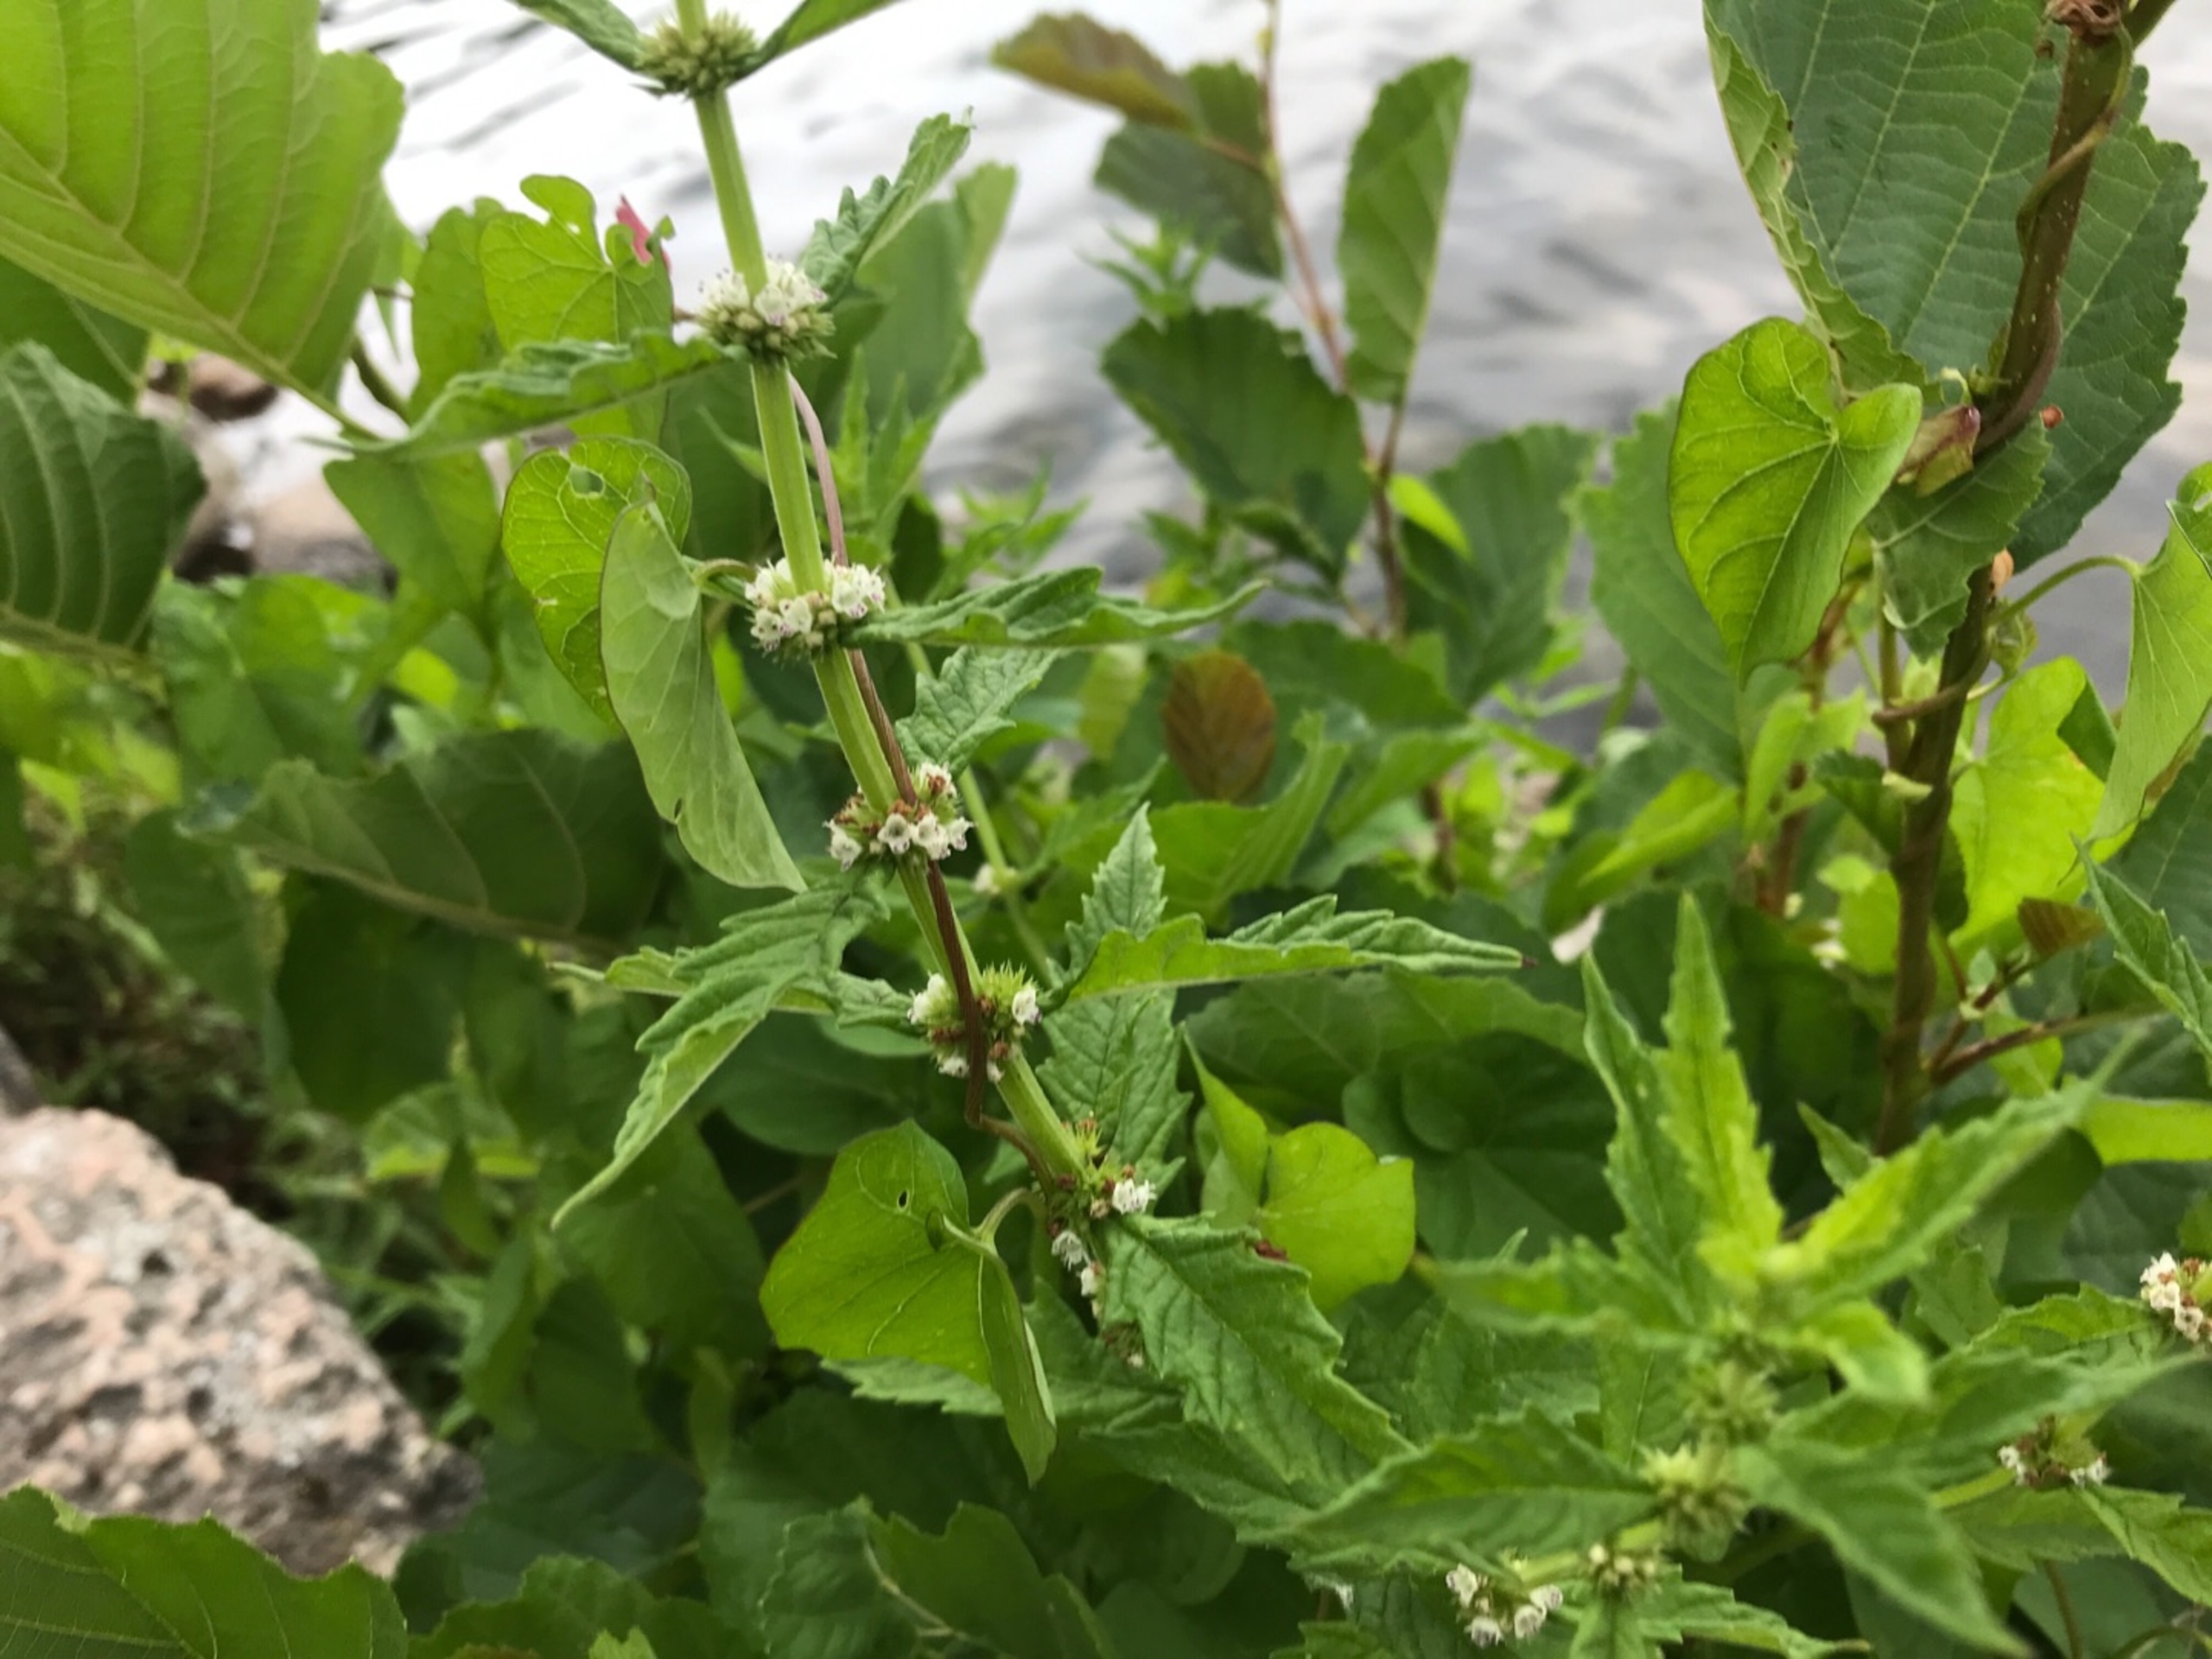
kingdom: Plantae
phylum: Tracheophyta
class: Magnoliopsida
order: Lamiales
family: Lamiaceae
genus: Lycopus
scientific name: Lycopus europaeus
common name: Sværtevæld
